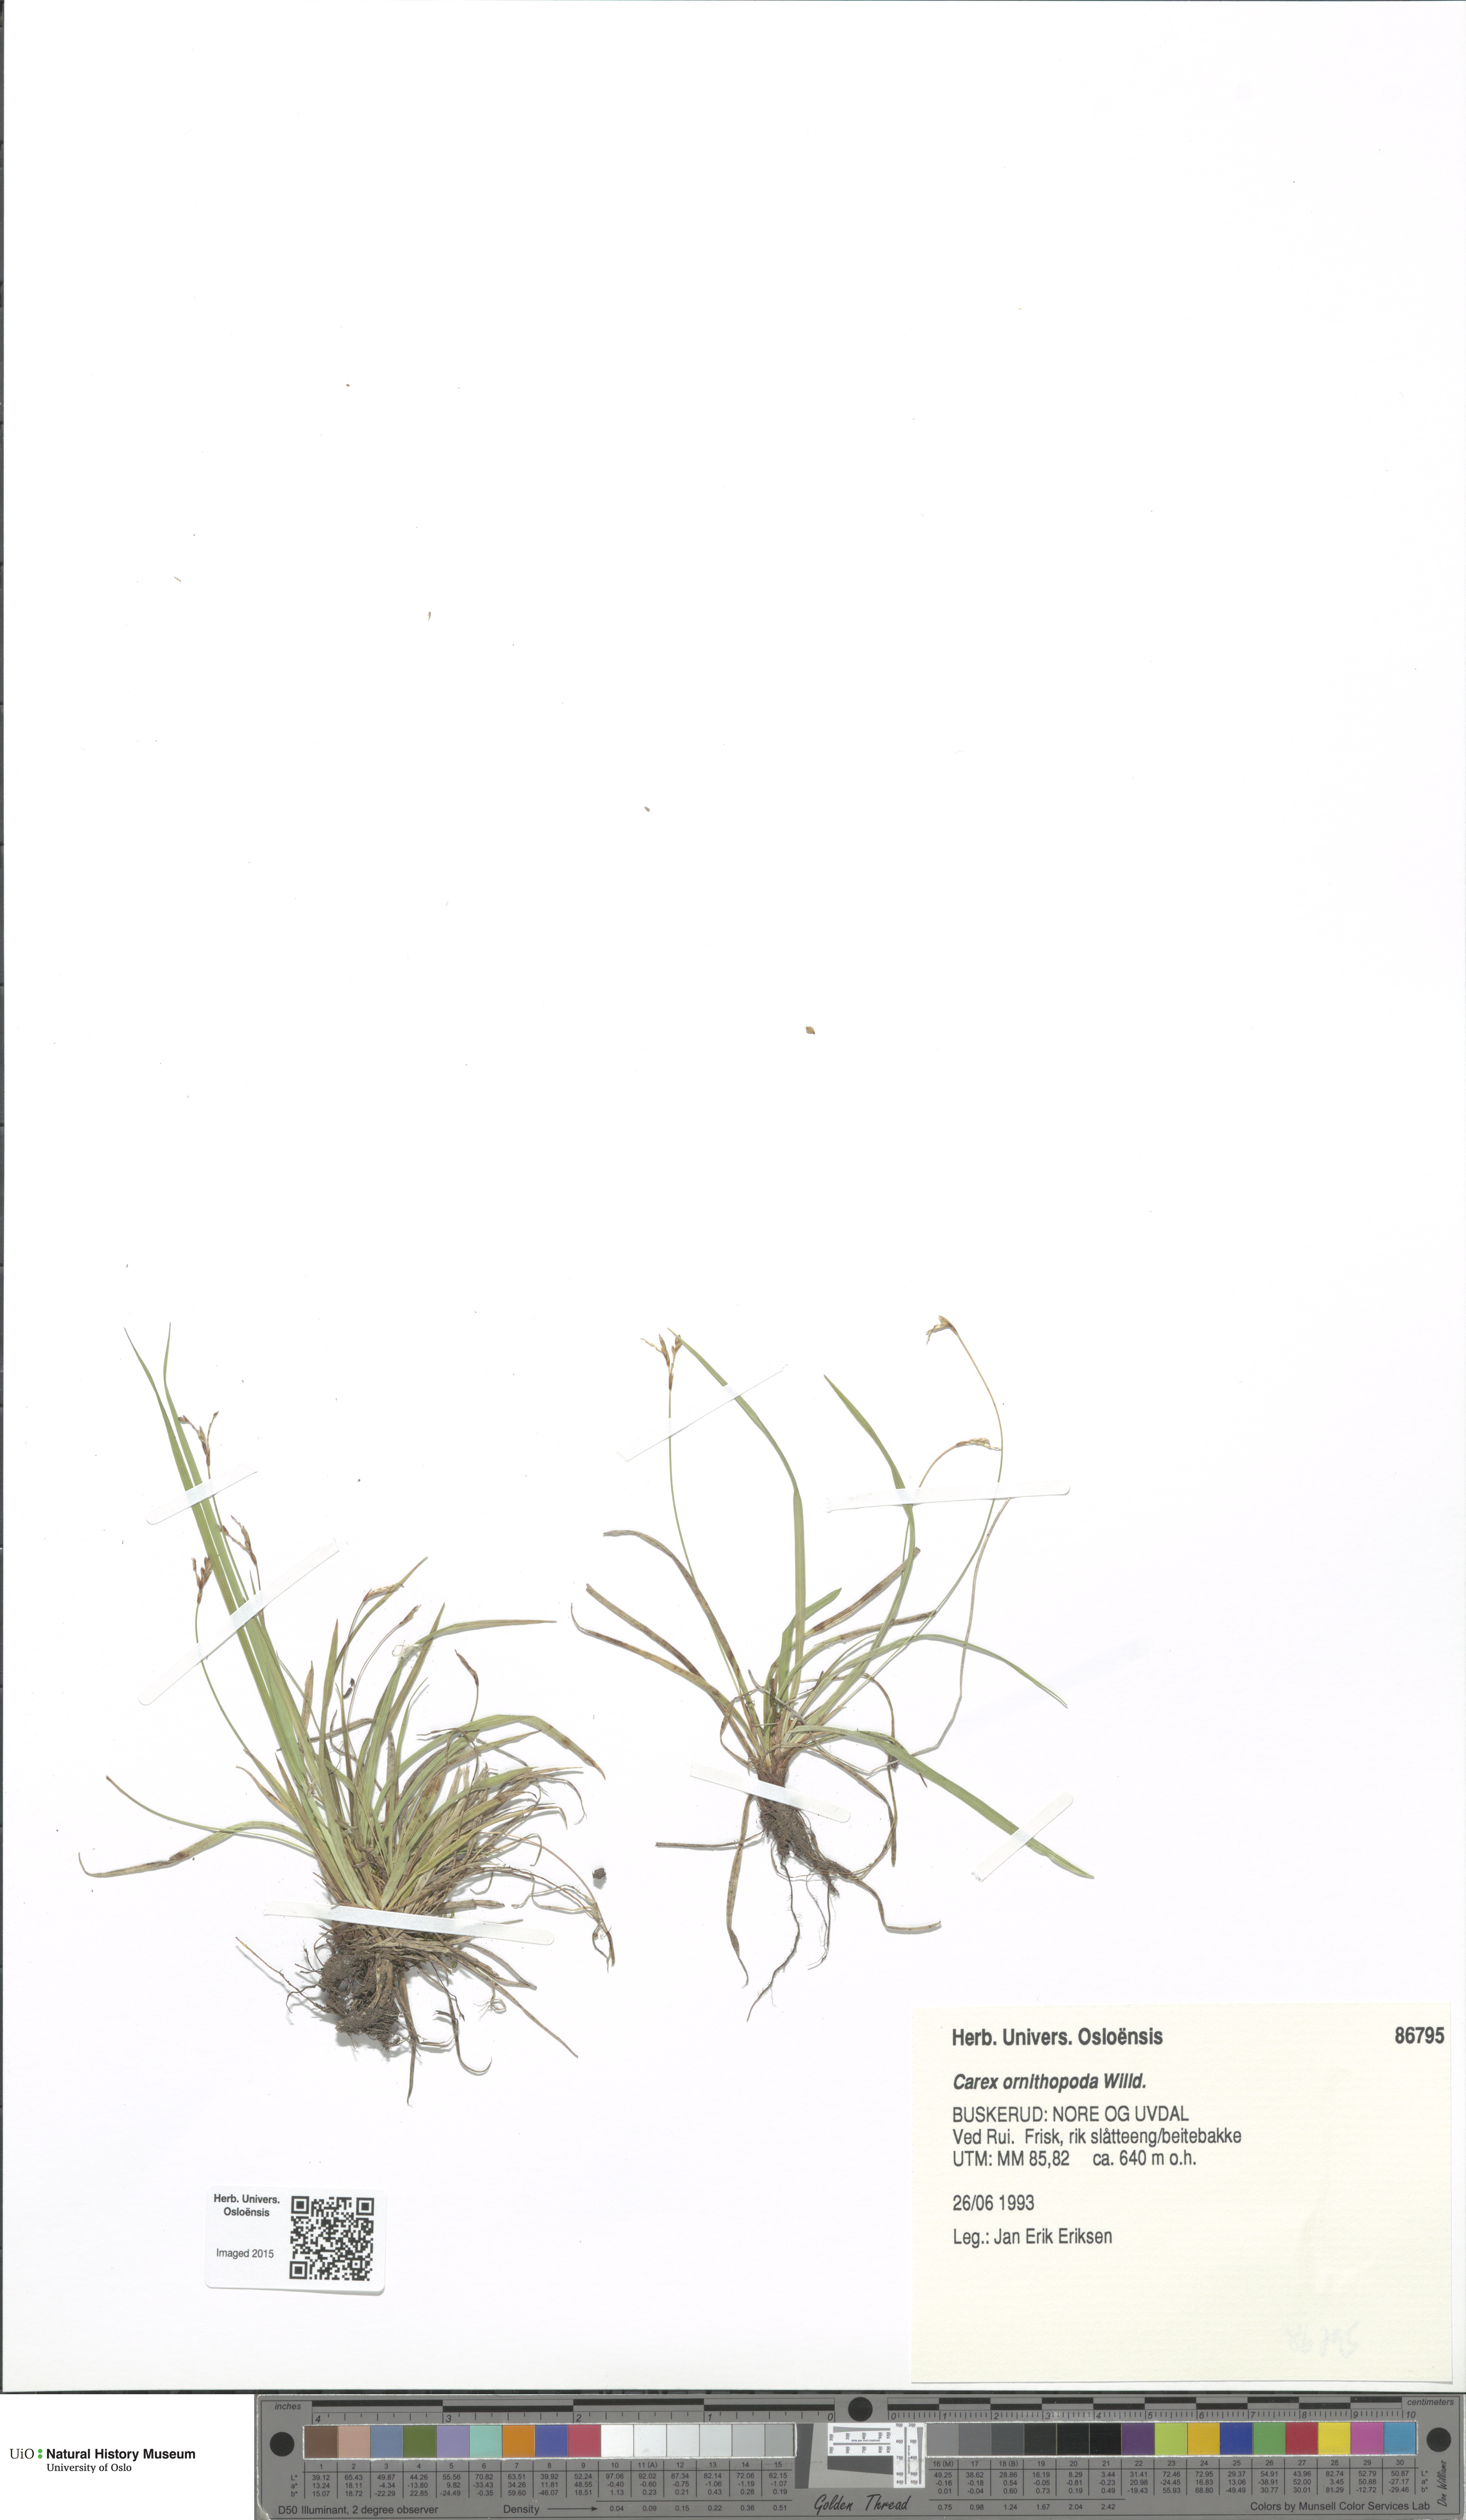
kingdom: Plantae
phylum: Tracheophyta
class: Liliopsida
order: Poales
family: Cyperaceae
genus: Carex
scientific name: Carex ornithopoda
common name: Bird's-foot sedge
